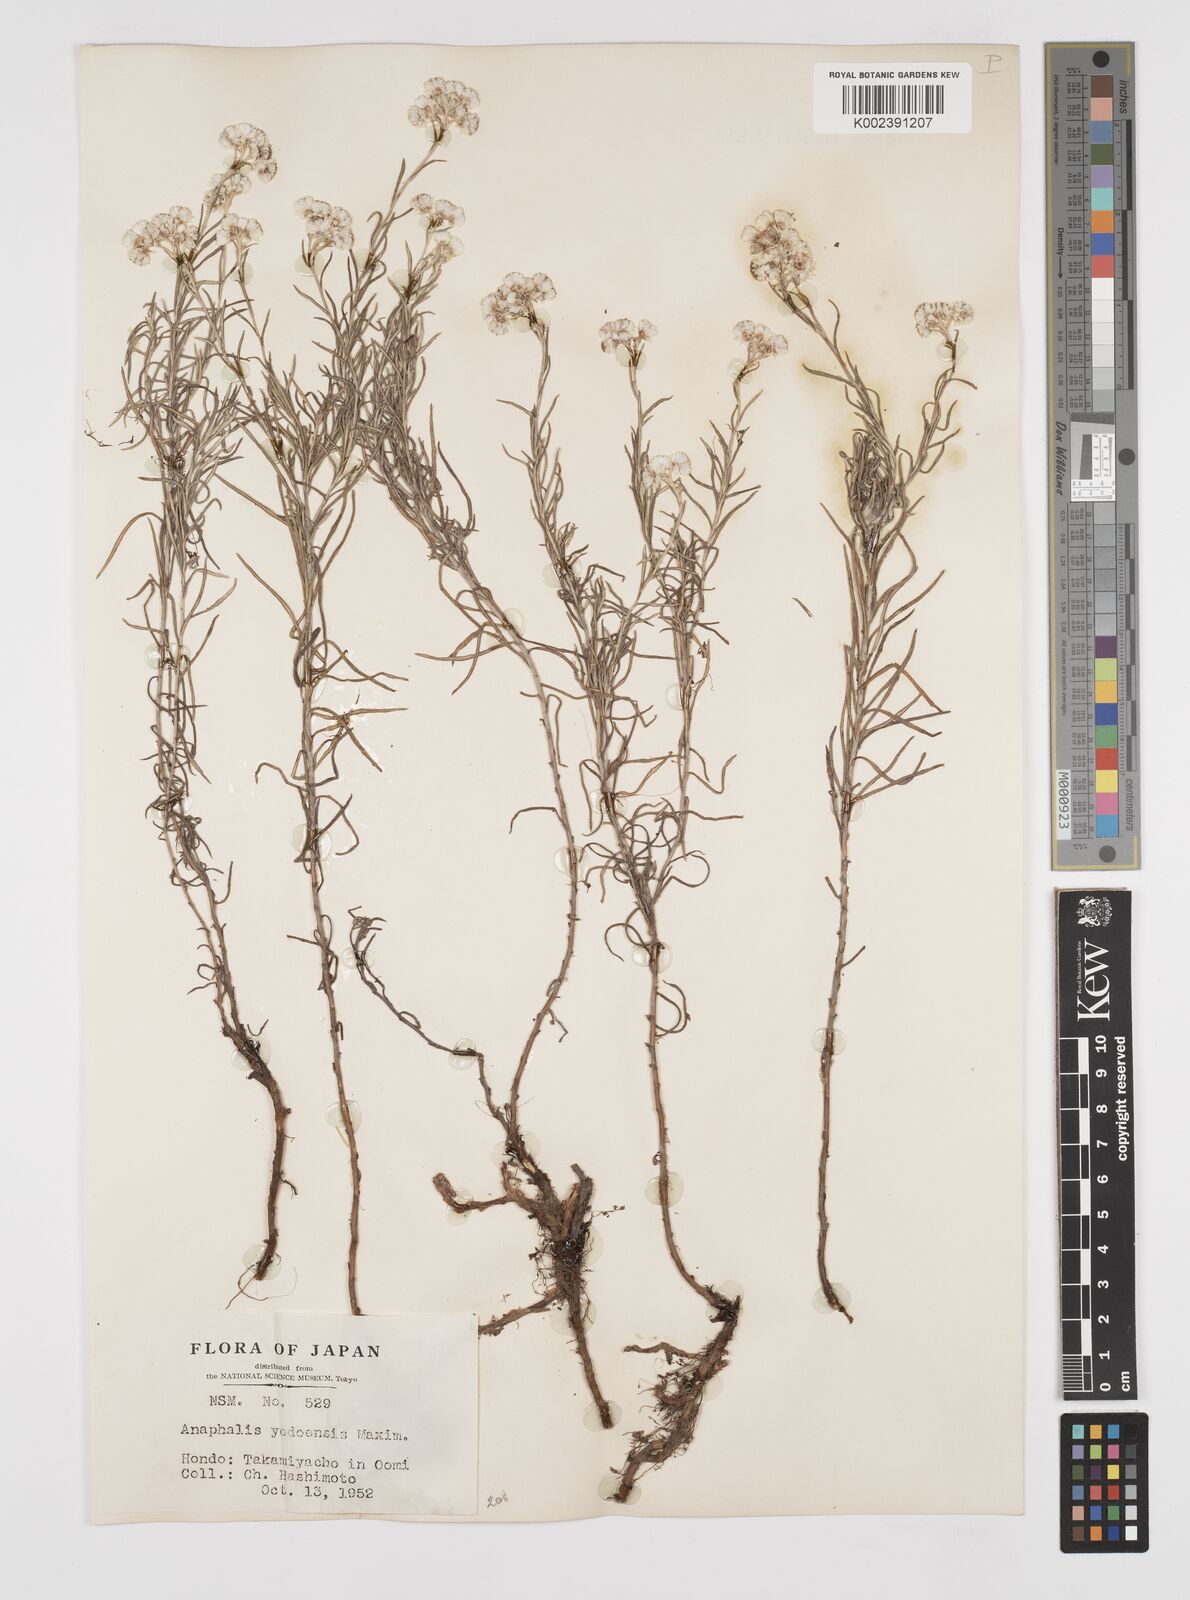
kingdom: Plantae
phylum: Tracheophyta
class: Magnoliopsida
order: Asterales
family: Asteraceae
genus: Anaphalis
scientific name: Anaphalis margaritacea
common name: Pearly everlasting
